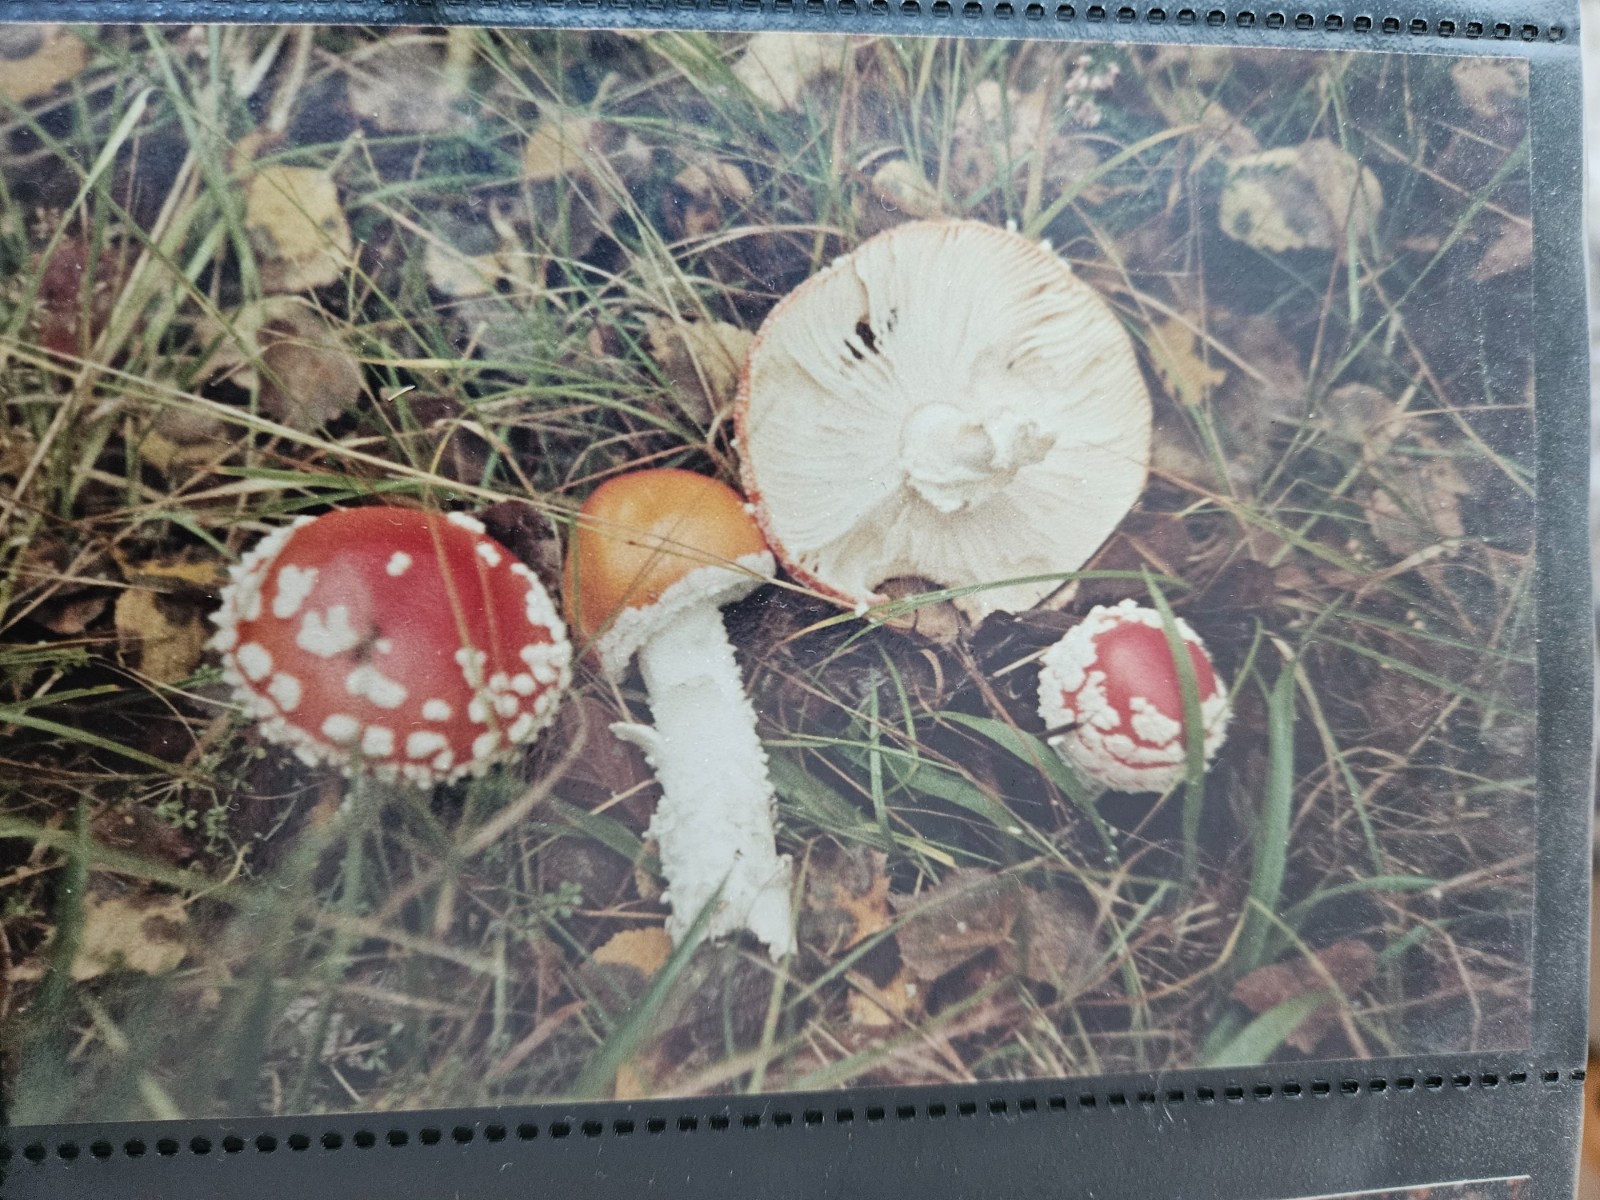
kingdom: Fungi
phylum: Basidiomycota
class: Agaricomycetes
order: Agaricales
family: Amanitaceae
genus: Amanita
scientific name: Amanita muscaria
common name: rød fluesvamp
